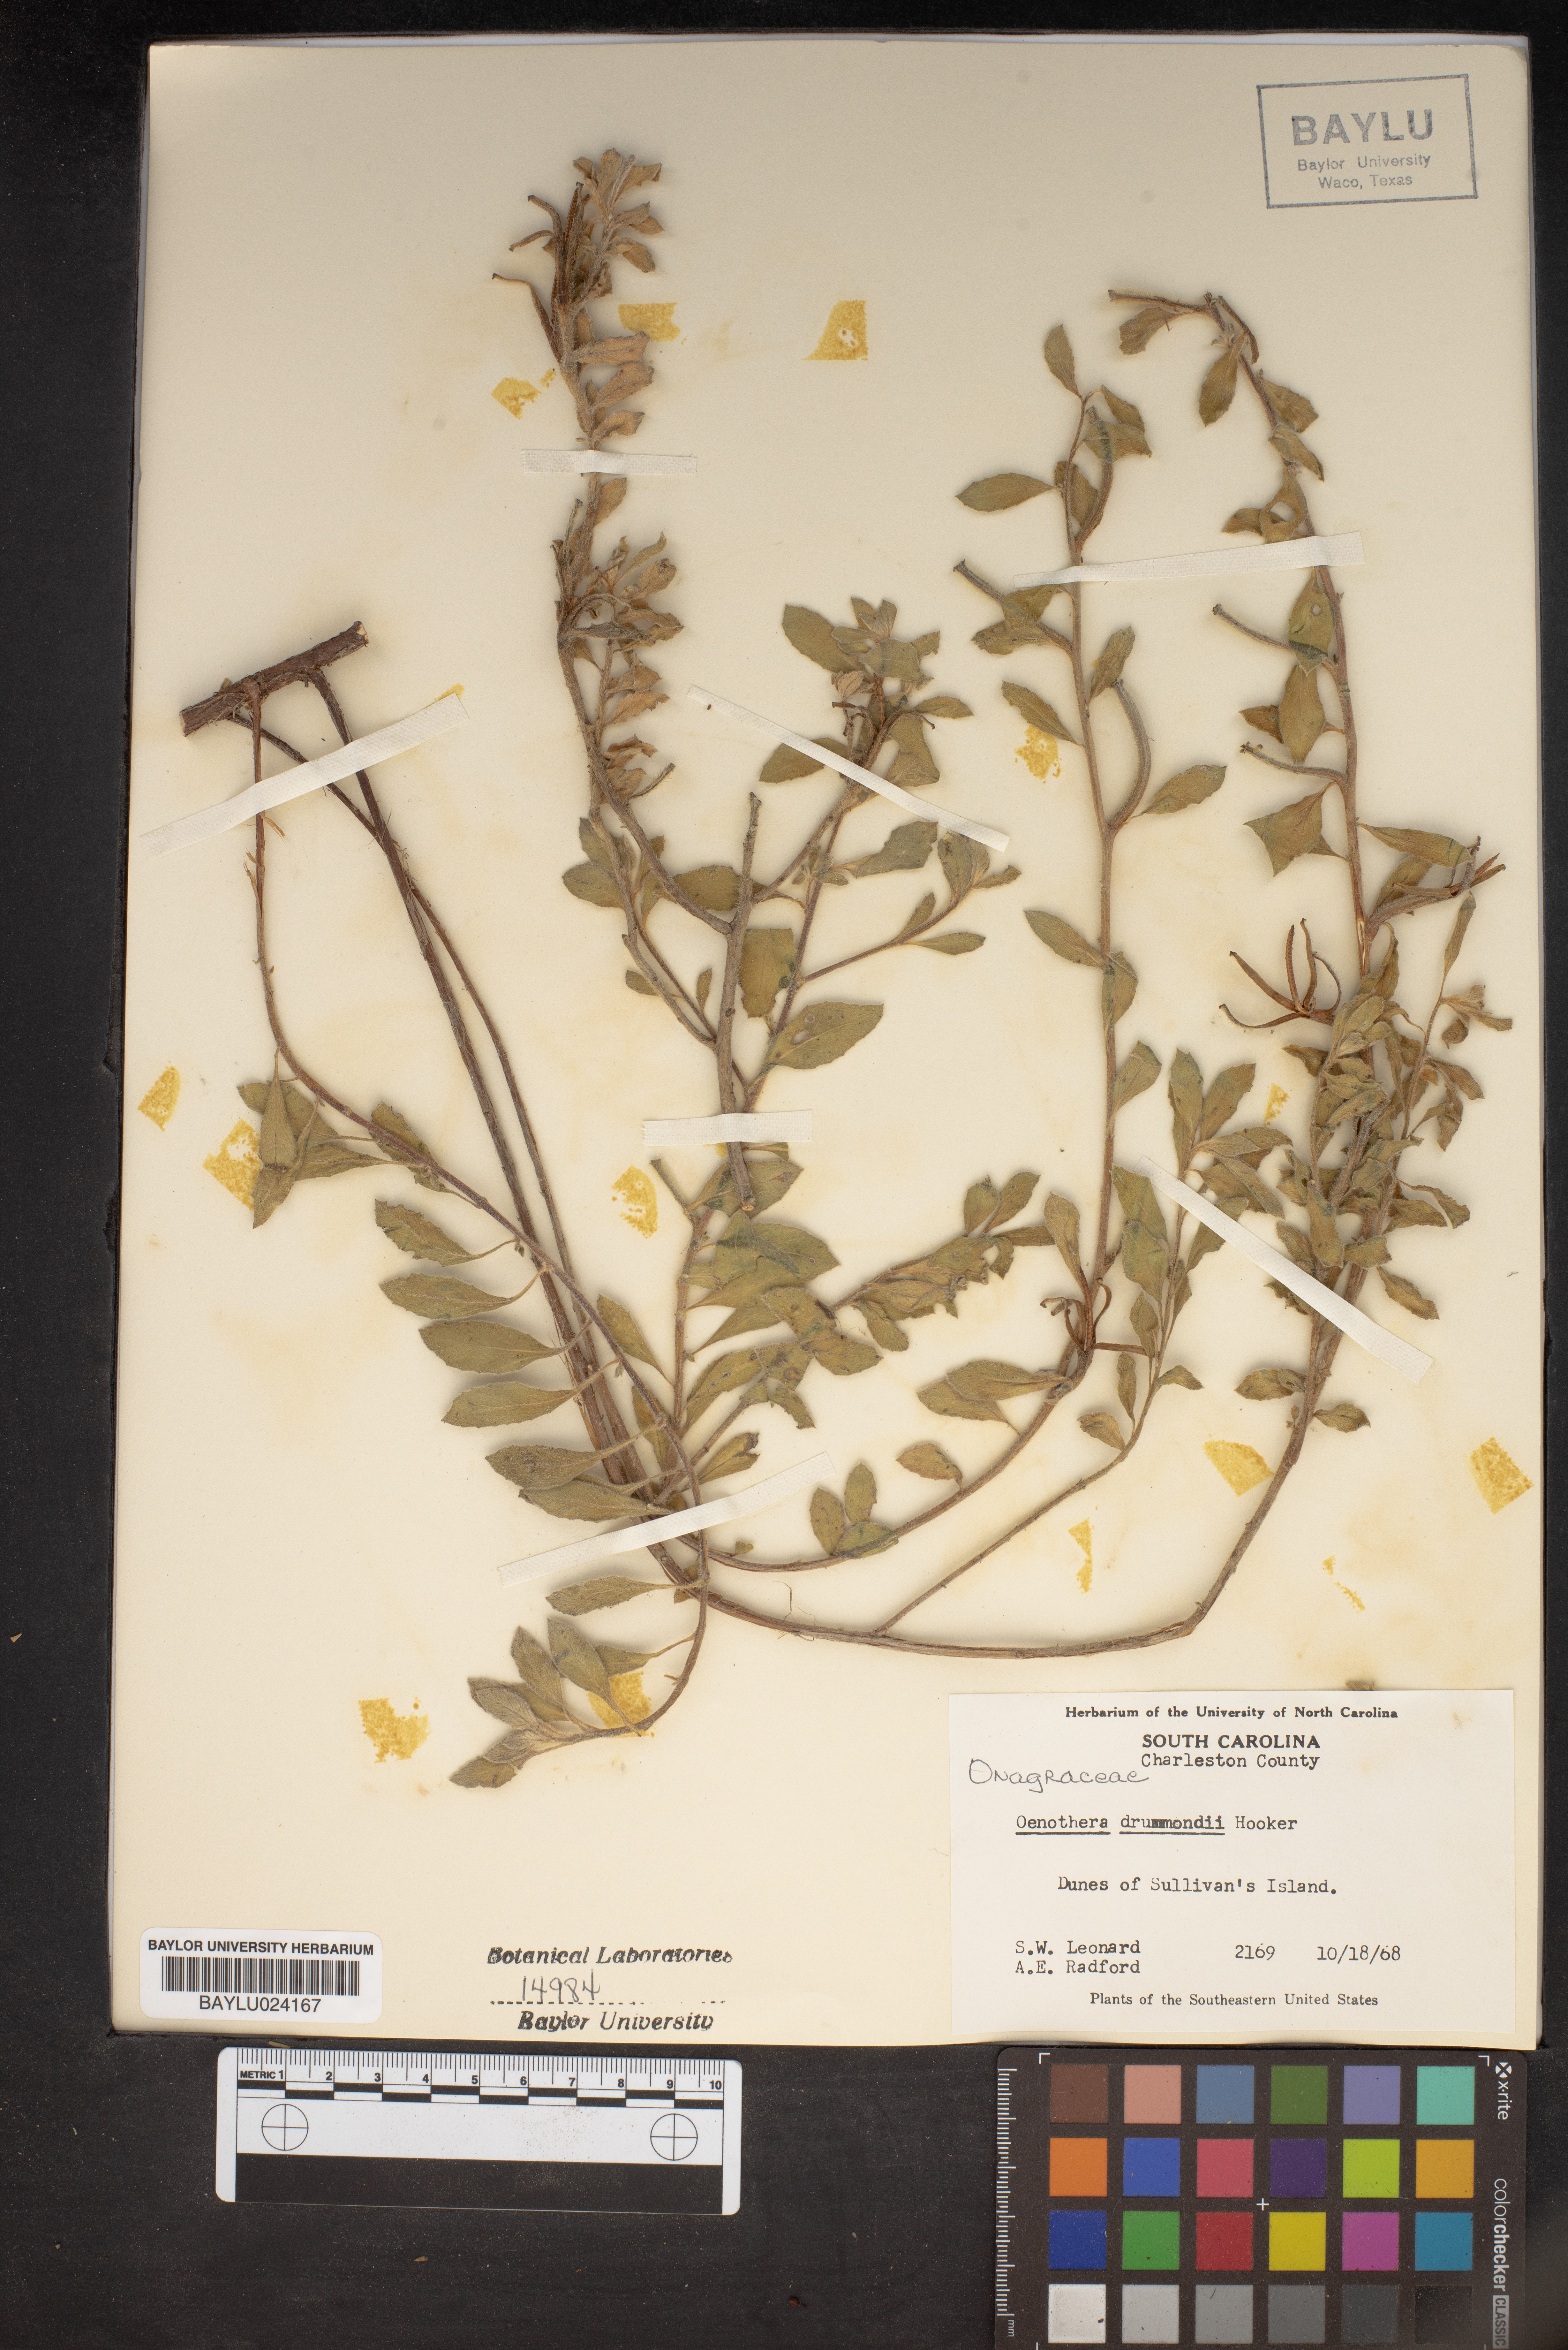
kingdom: Plantae
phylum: Tracheophyta
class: Magnoliopsida
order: Myrtales
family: Onagraceae
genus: Oenothera
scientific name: Oenothera drummondii
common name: Beach evening-primrose
